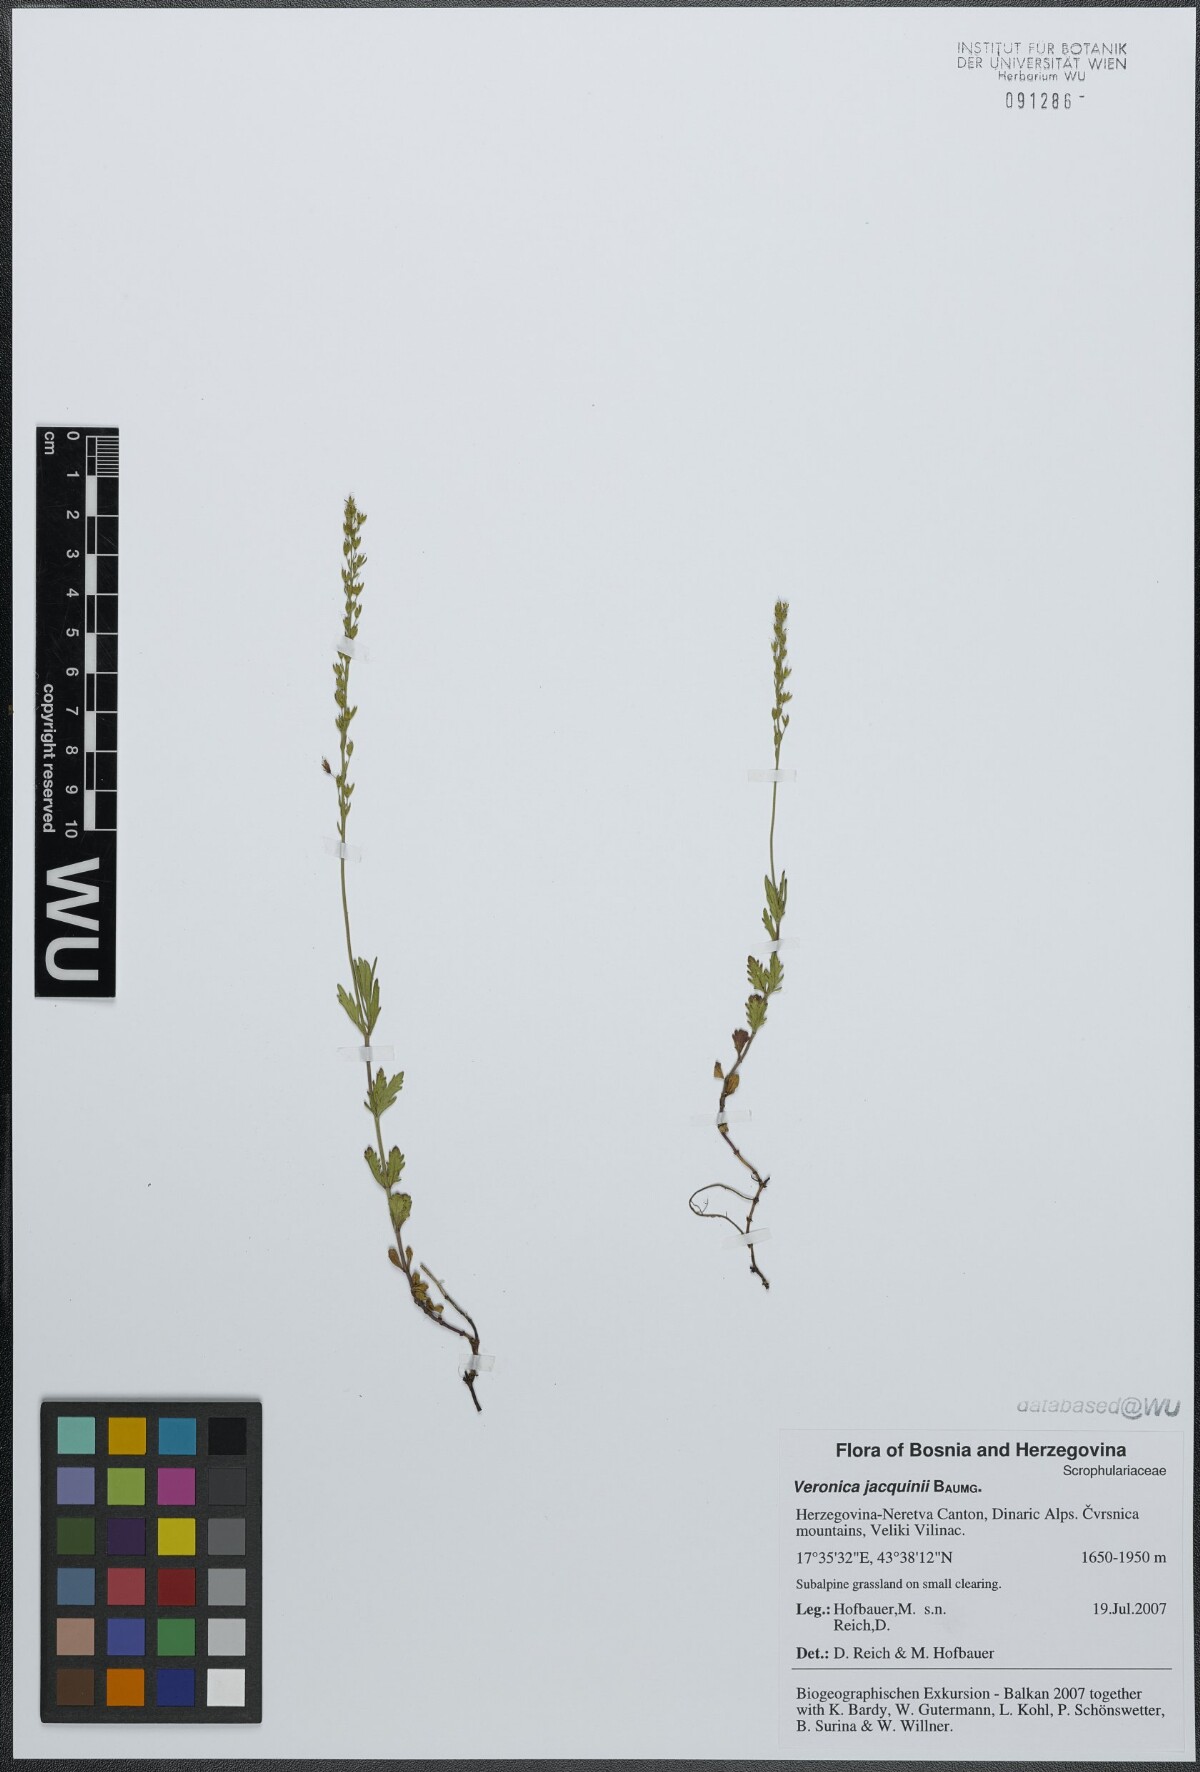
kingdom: Plantae
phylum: Tracheophyta
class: Magnoliopsida
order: Lamiales
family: Plantaginaceae
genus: Veronica
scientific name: Veronica austriaca
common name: Large speedwell
